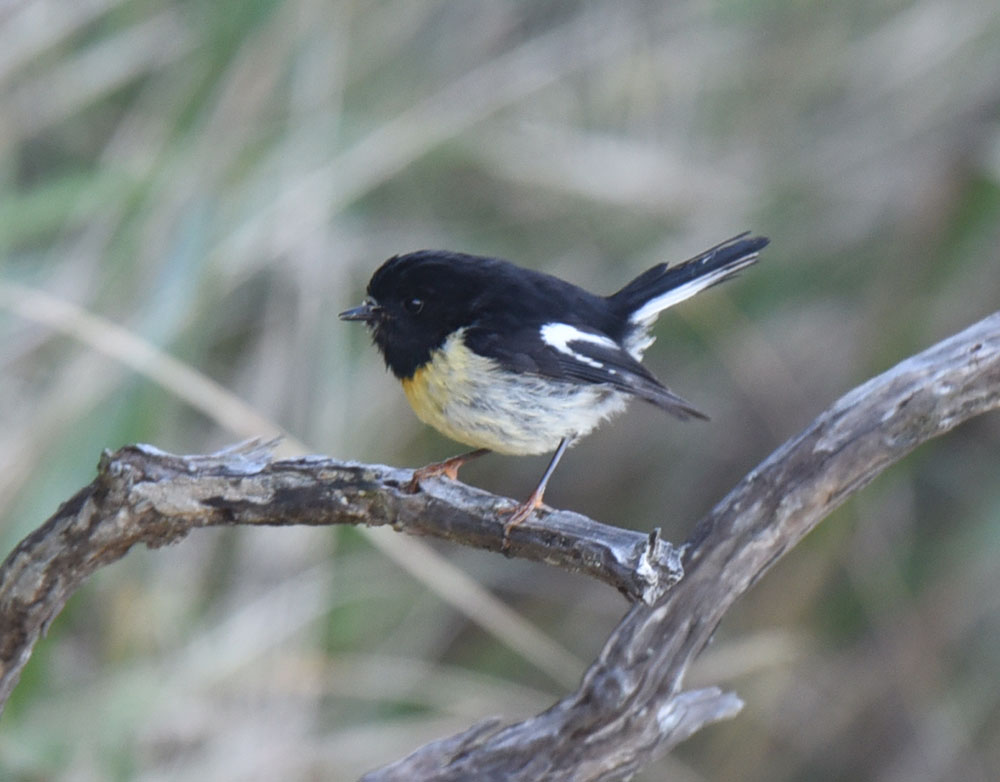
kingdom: Animalia
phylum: Chordata
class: Aves
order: Passeriformes
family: Petroicidae
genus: Petroica
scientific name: Petroica macrocephala
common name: Tomtit
